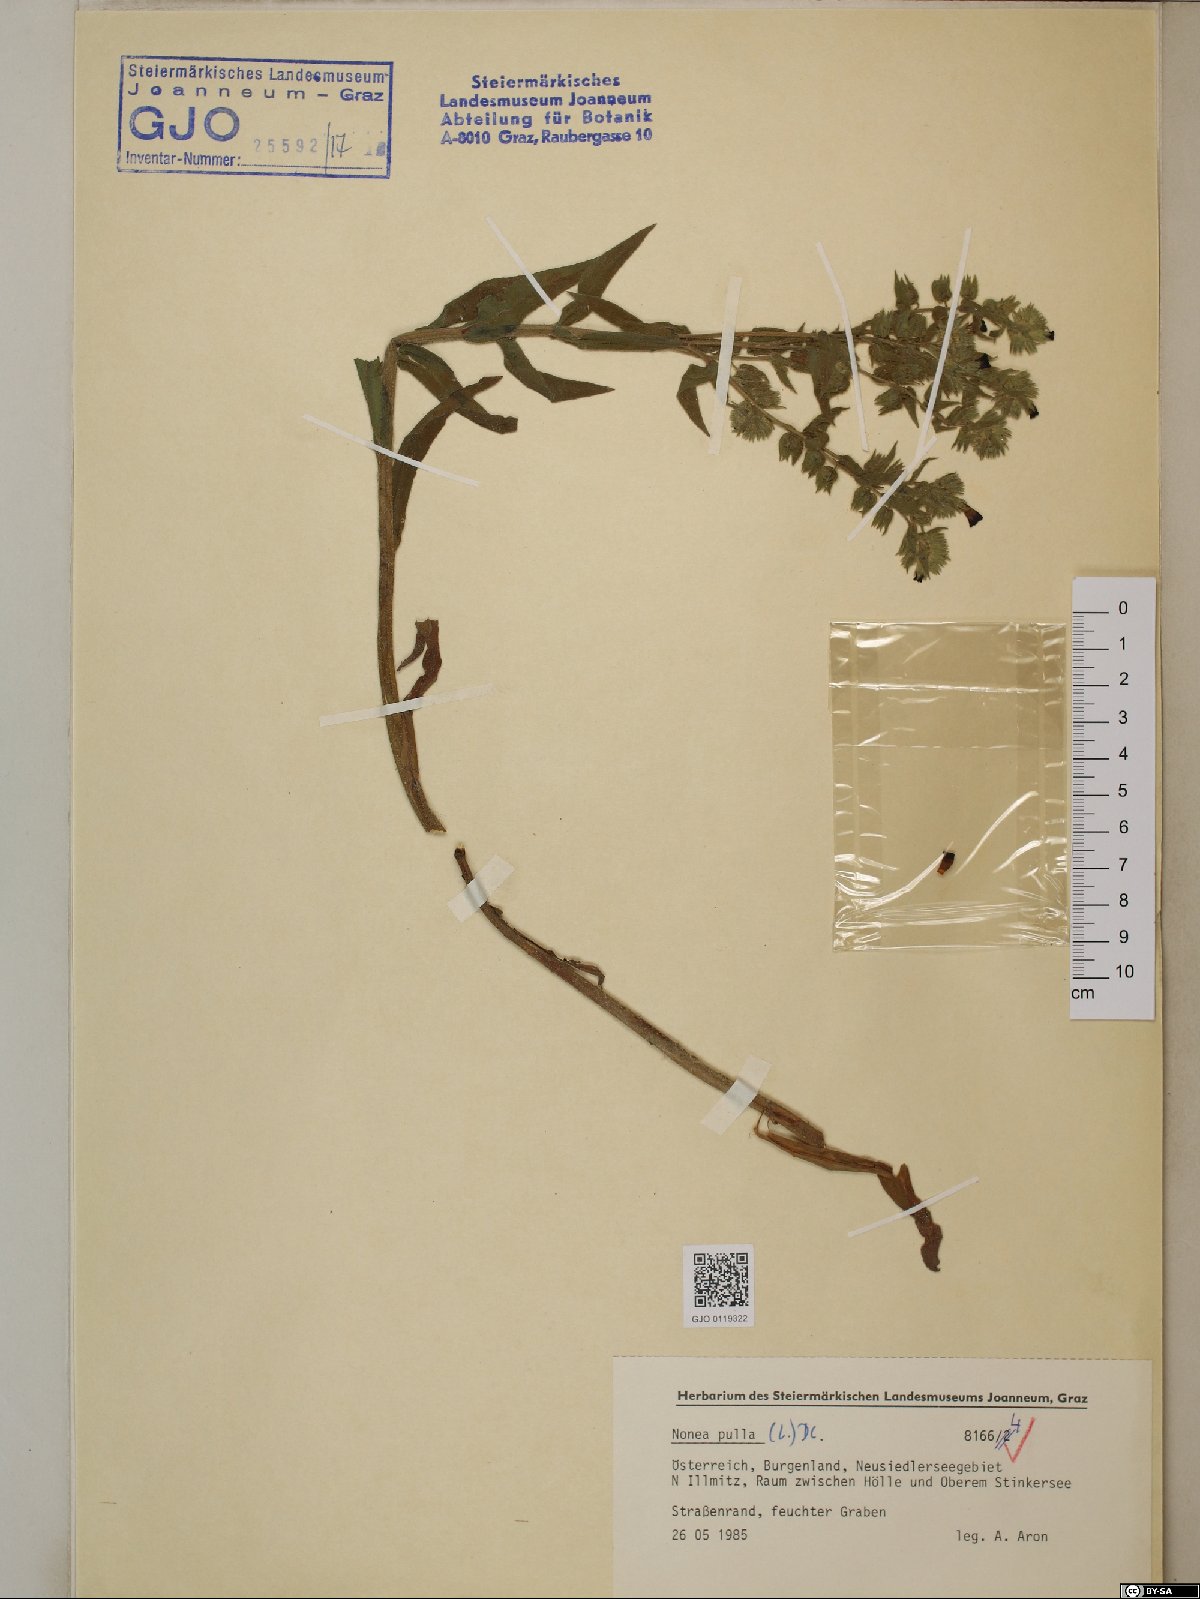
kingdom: Plantae
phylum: Tracheophyta
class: Magnoliopsida
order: Boraginales
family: Boraginaceae
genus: Nonea
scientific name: Nonea pulla
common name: Brown nonea
